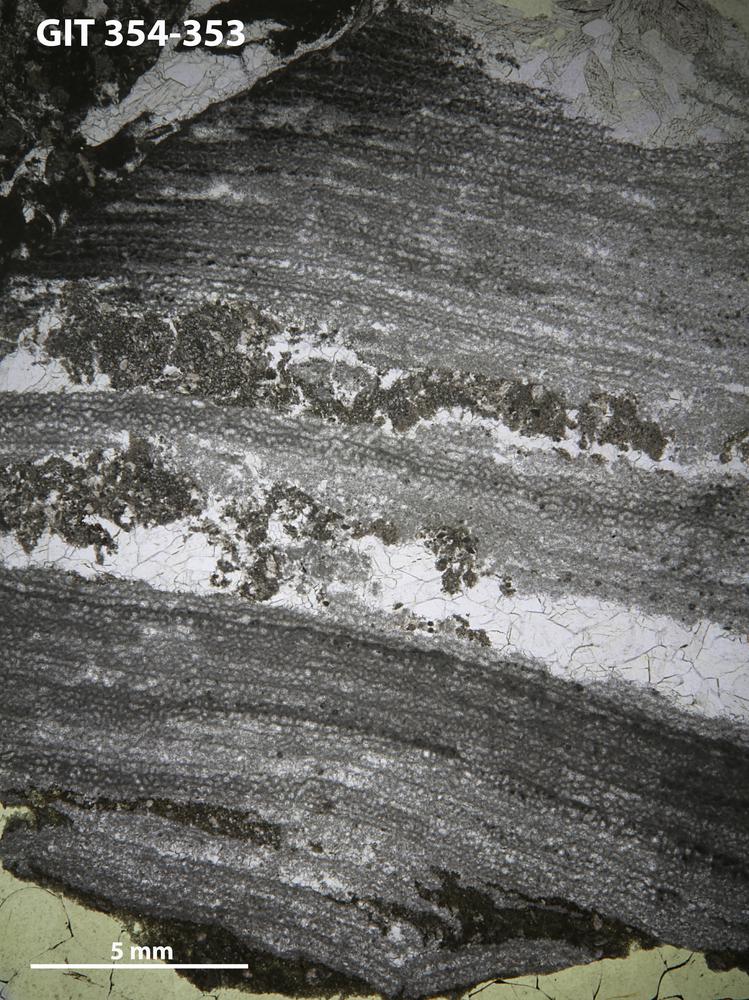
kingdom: Animalia
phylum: Porifera
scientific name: Porifera
